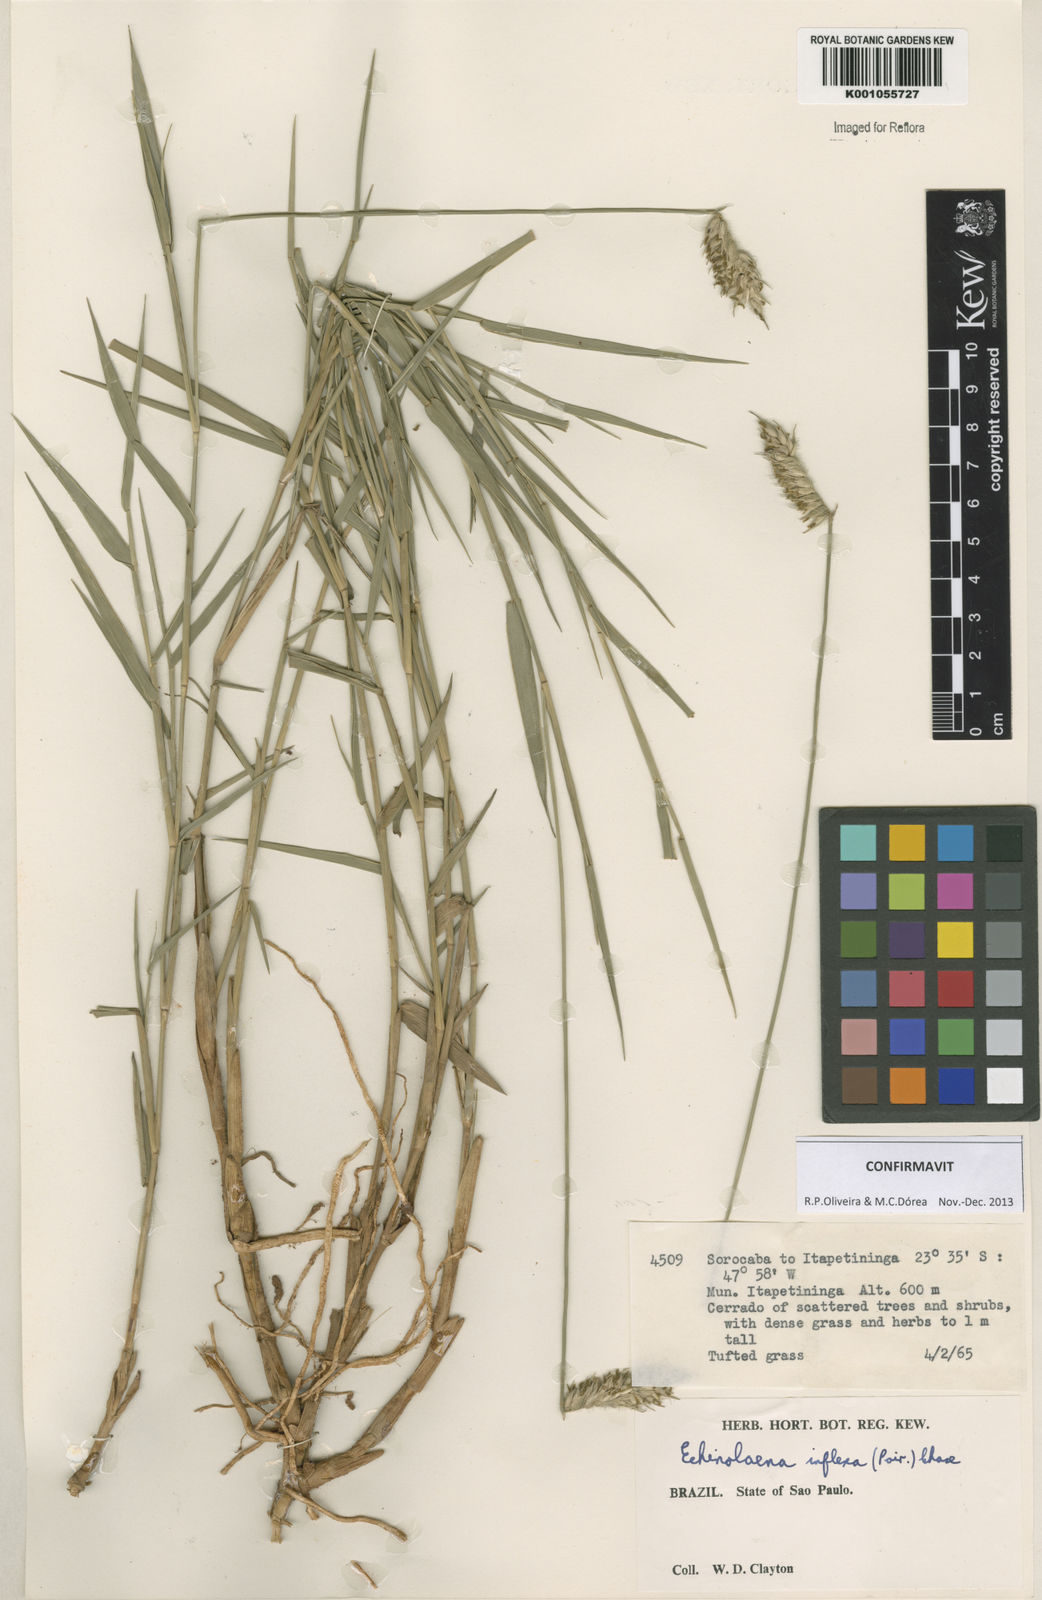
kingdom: Plantae
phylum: Tracheophyta
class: Liliopsida
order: Poales
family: Poaceae
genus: Echinolaena
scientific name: Echinolaena inflexa
